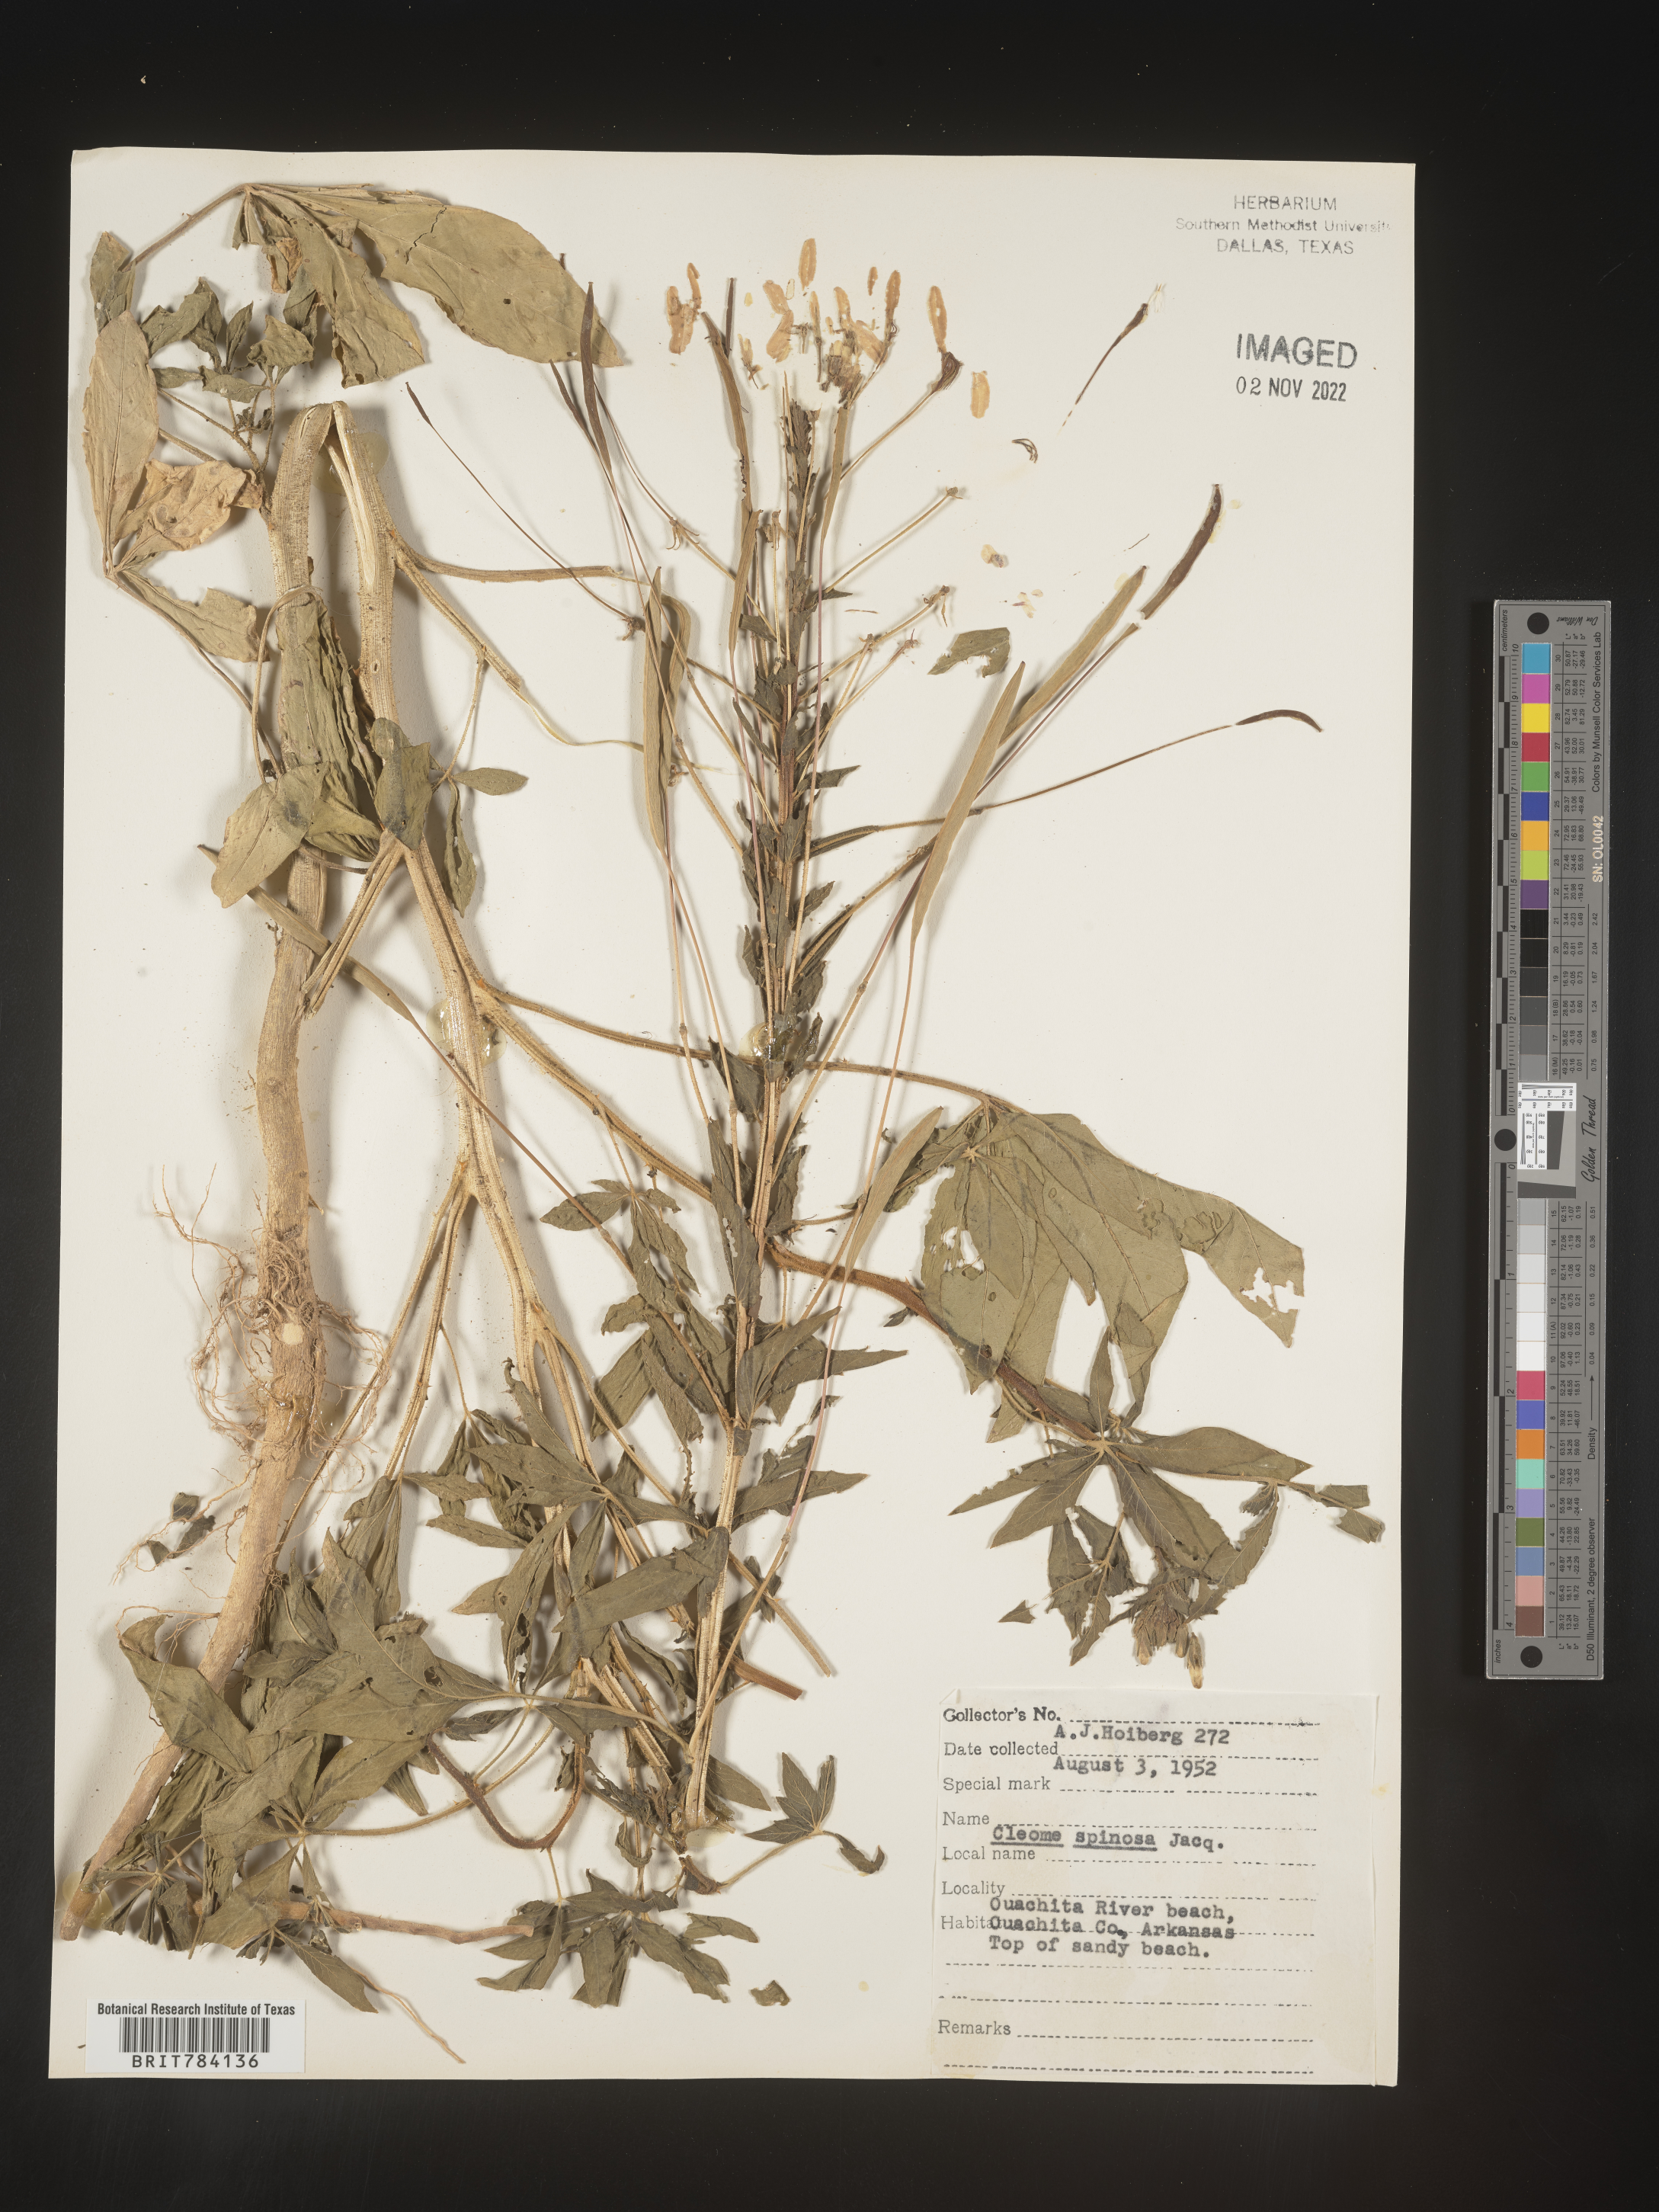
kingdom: Plantae
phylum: Tracheophyta
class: Magnoliopsida
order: Brassicales
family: Cleomaceae
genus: Cleome
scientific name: Cleome
